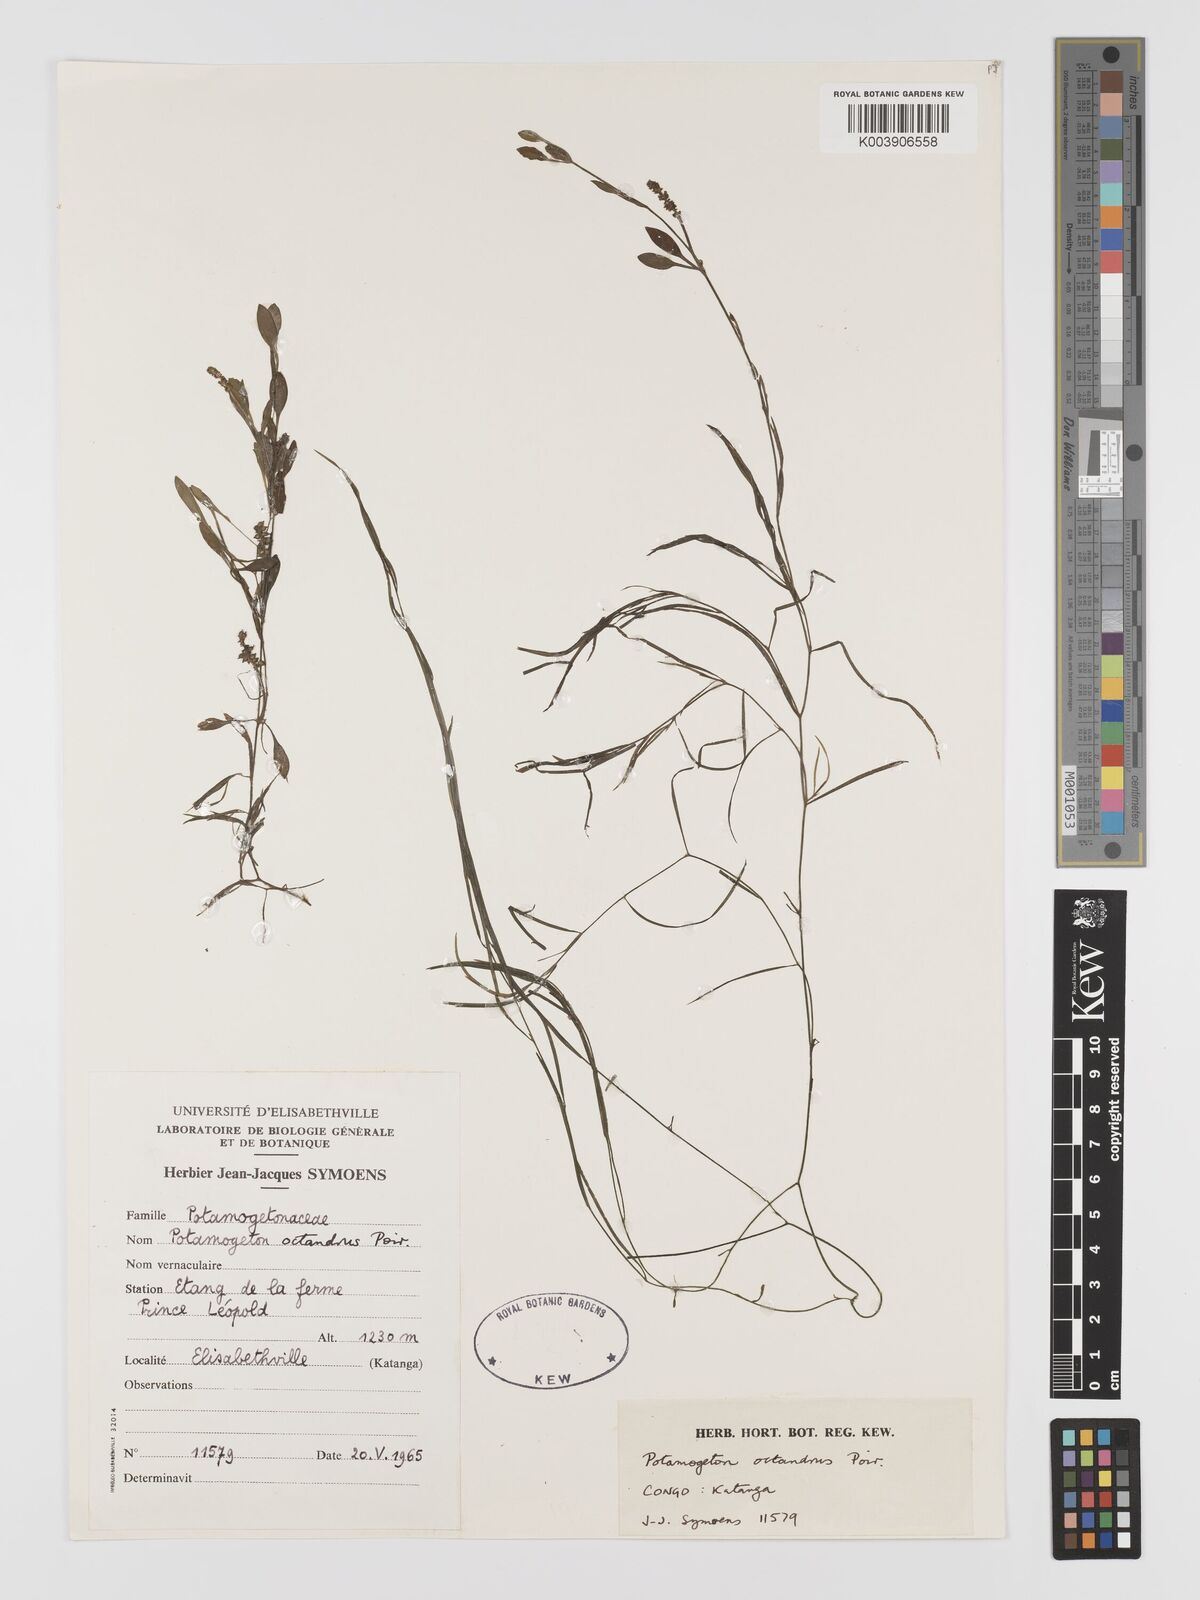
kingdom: Plantae
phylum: Tracheophyta
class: Liliopsida
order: Alismatales
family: Potamogetonaceae
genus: Potamogeton
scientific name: Potamogeton octandrus
